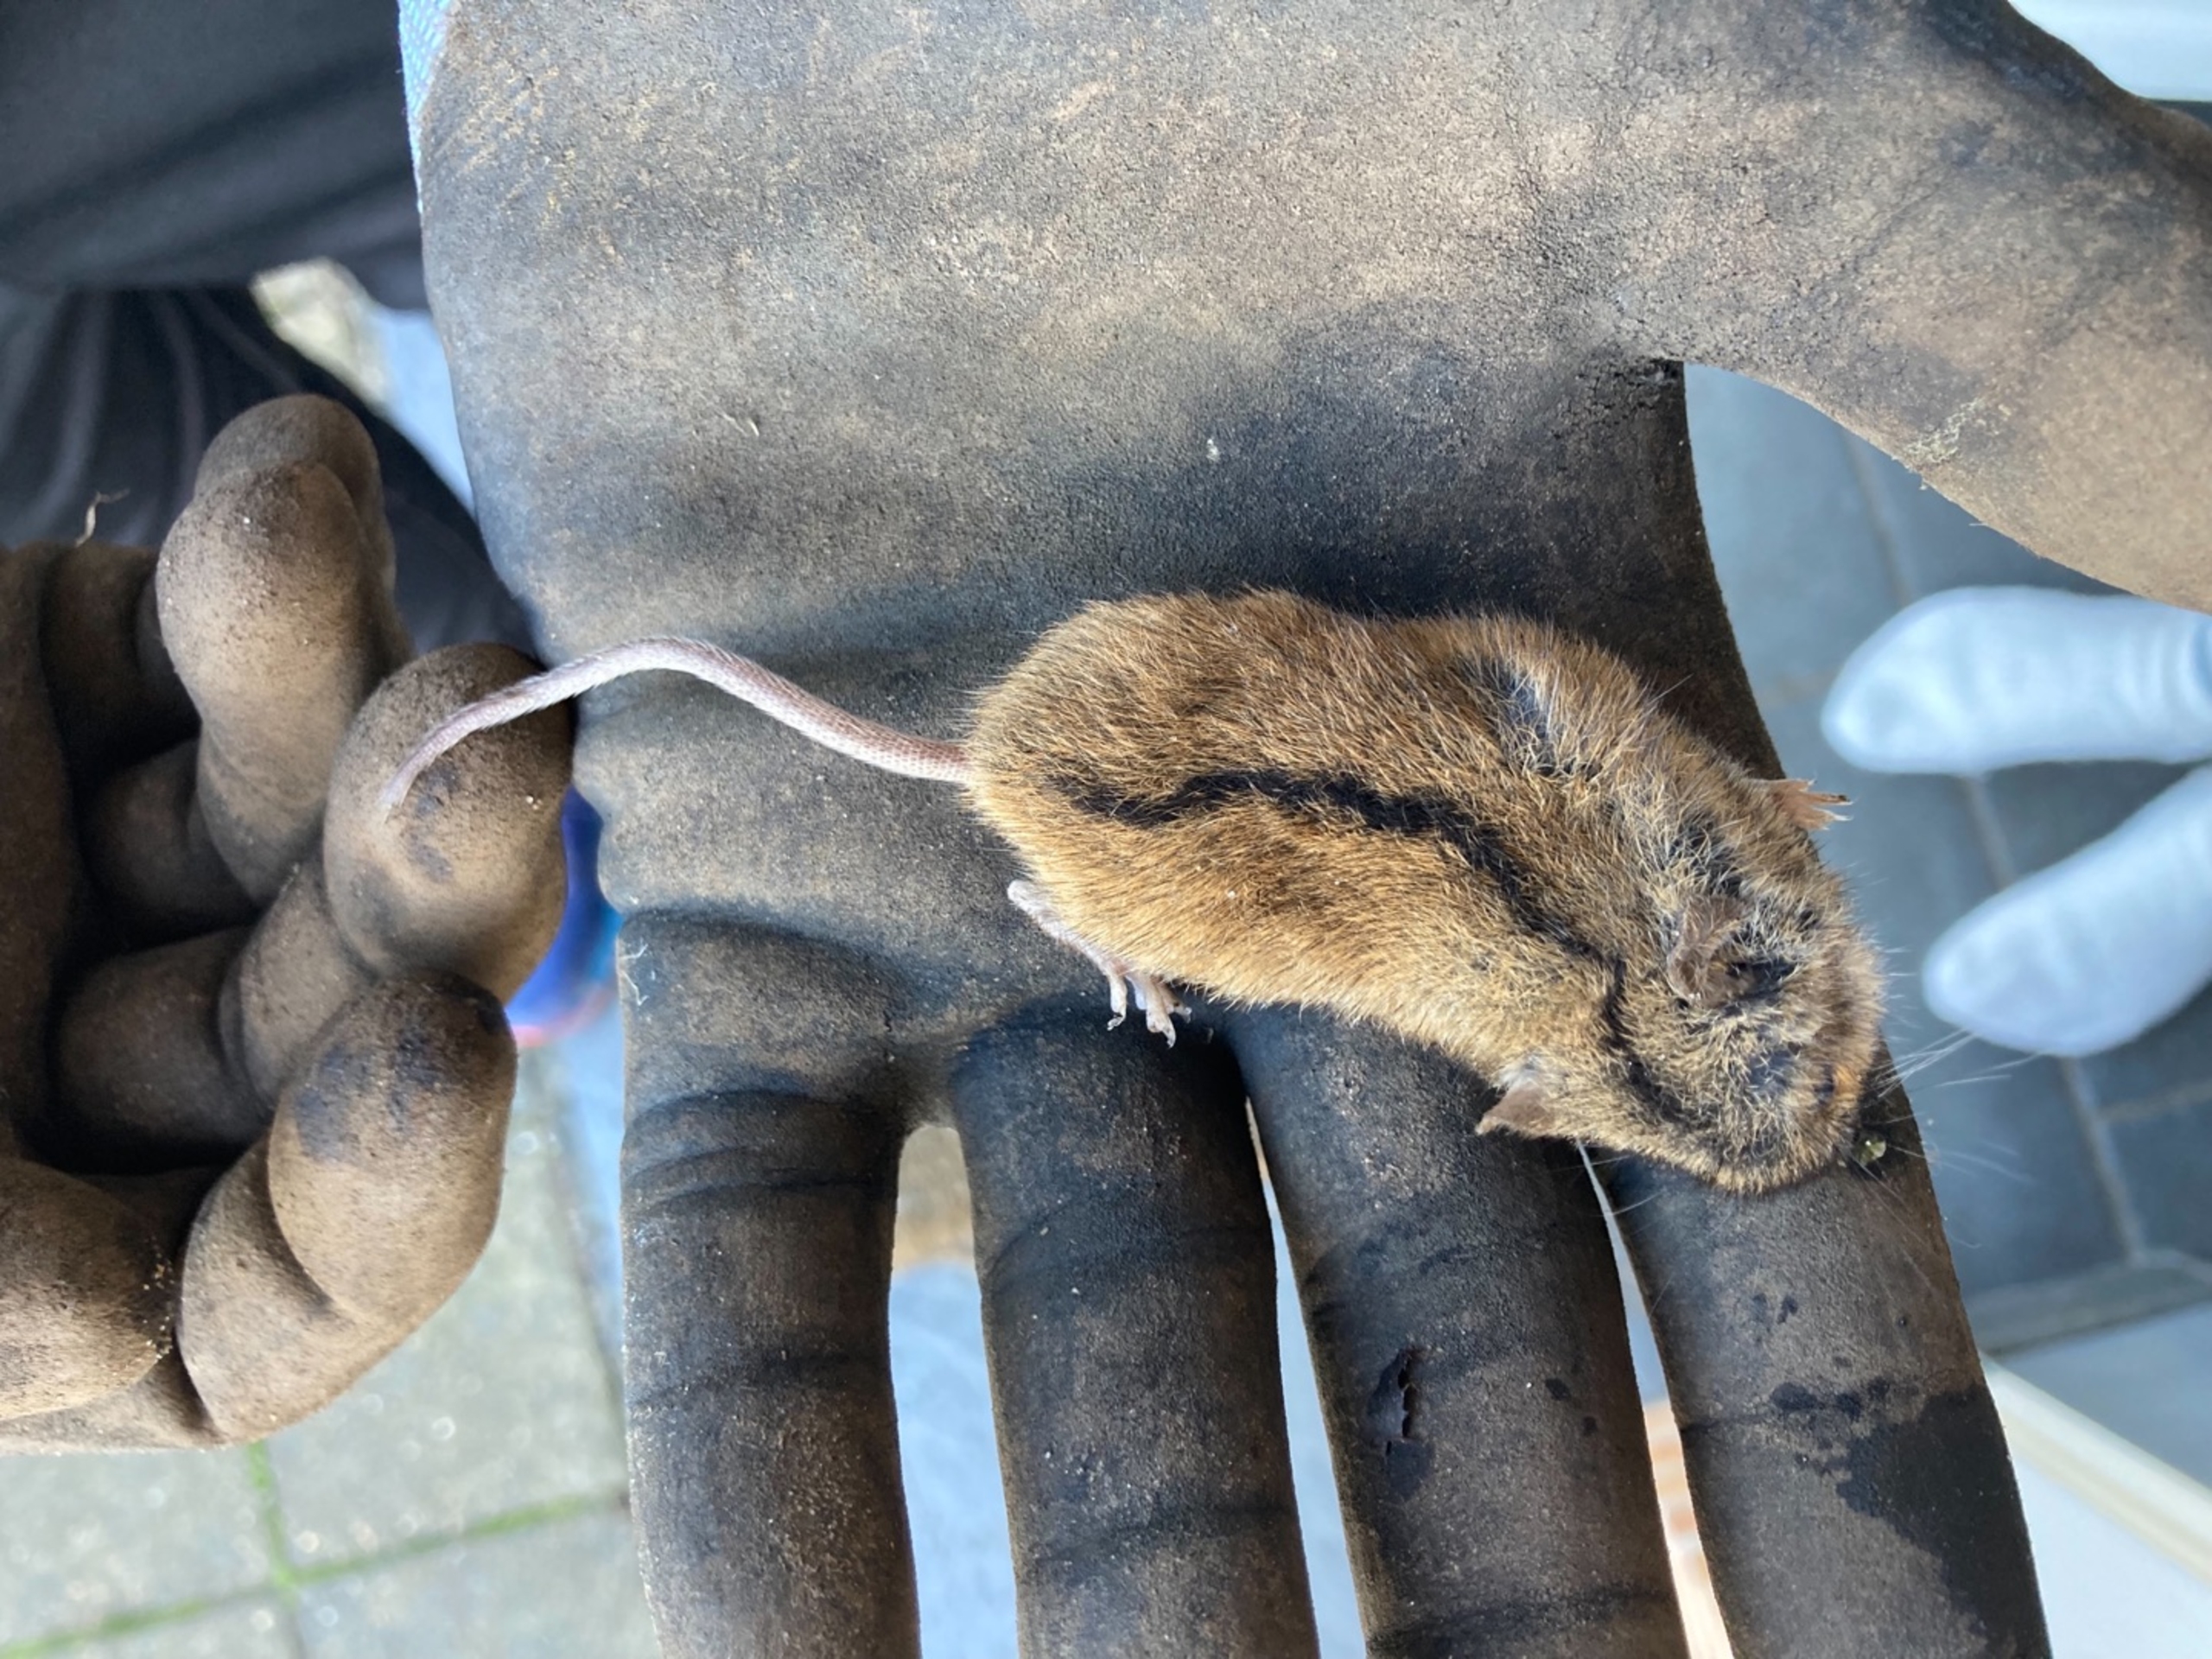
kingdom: Animalia
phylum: Chordata
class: Mammalia
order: Rodentia
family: Muridae
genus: Apodemus
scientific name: Apodemus agrarius
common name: Brandmus
